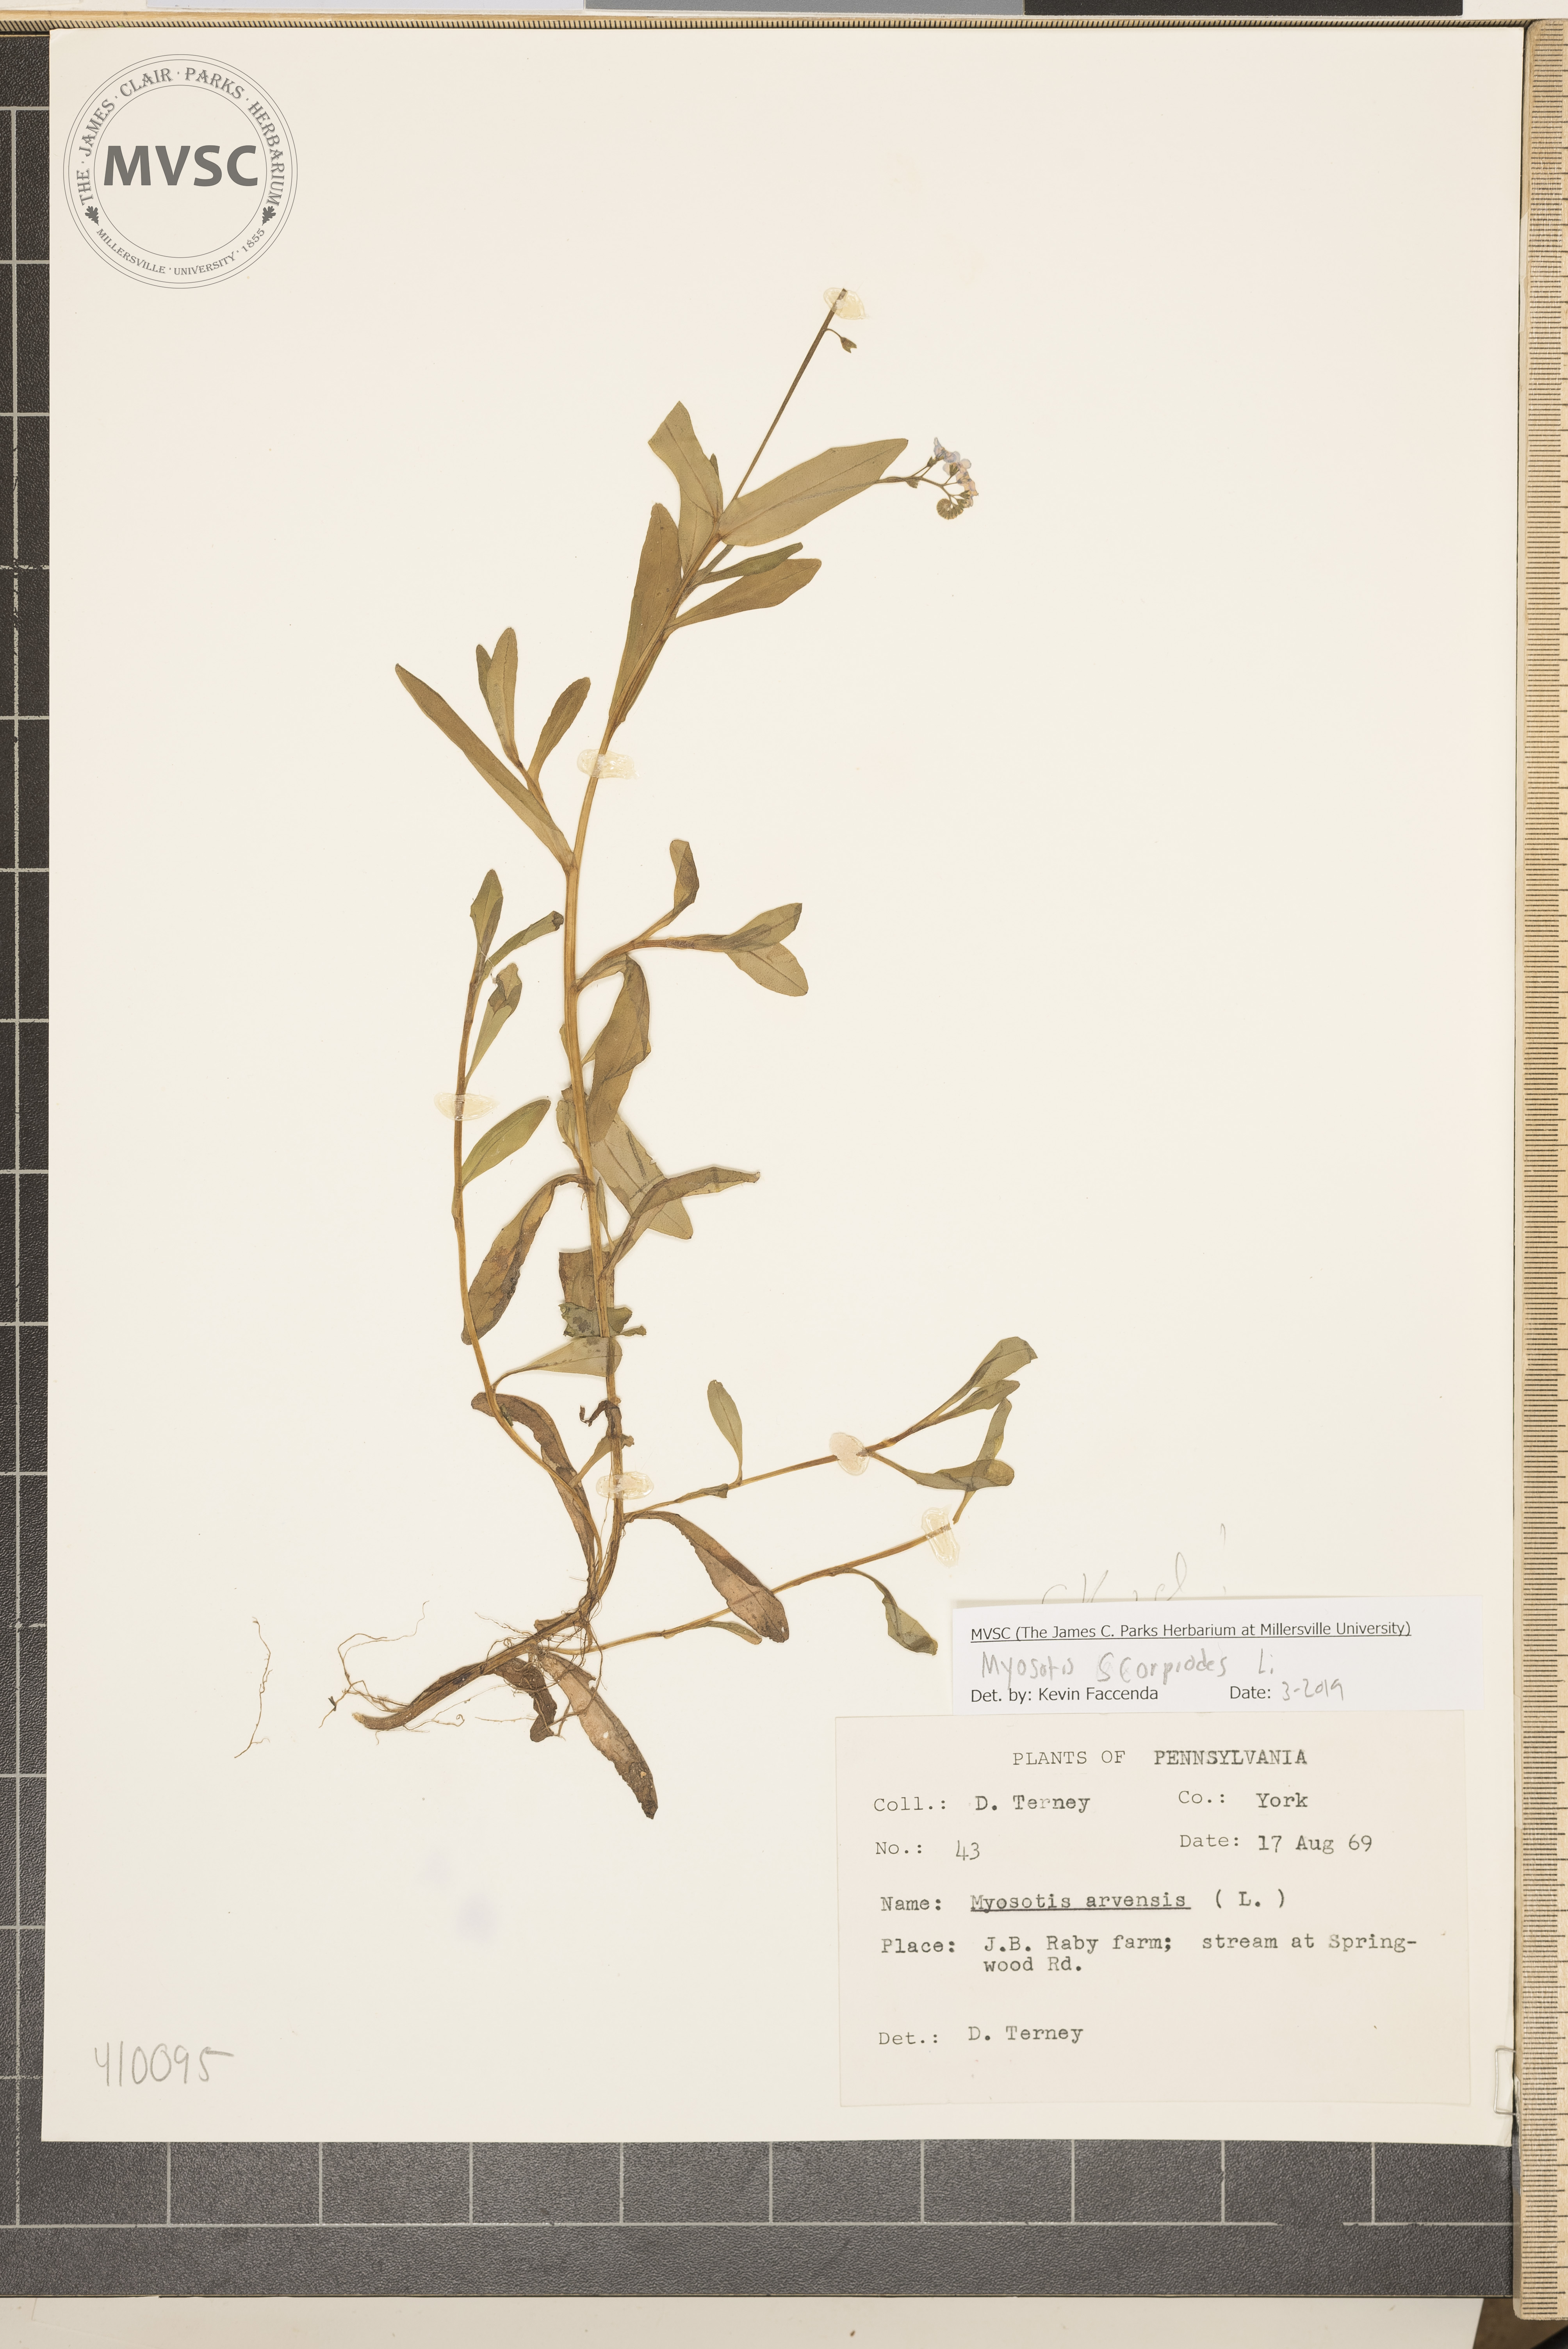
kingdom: Plantae
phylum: Tracheophyta
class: Magnoliopsida
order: Boraginales
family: Boraginaceae
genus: Myosotis
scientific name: Myosotis scorpioides
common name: Water forget-me-not
